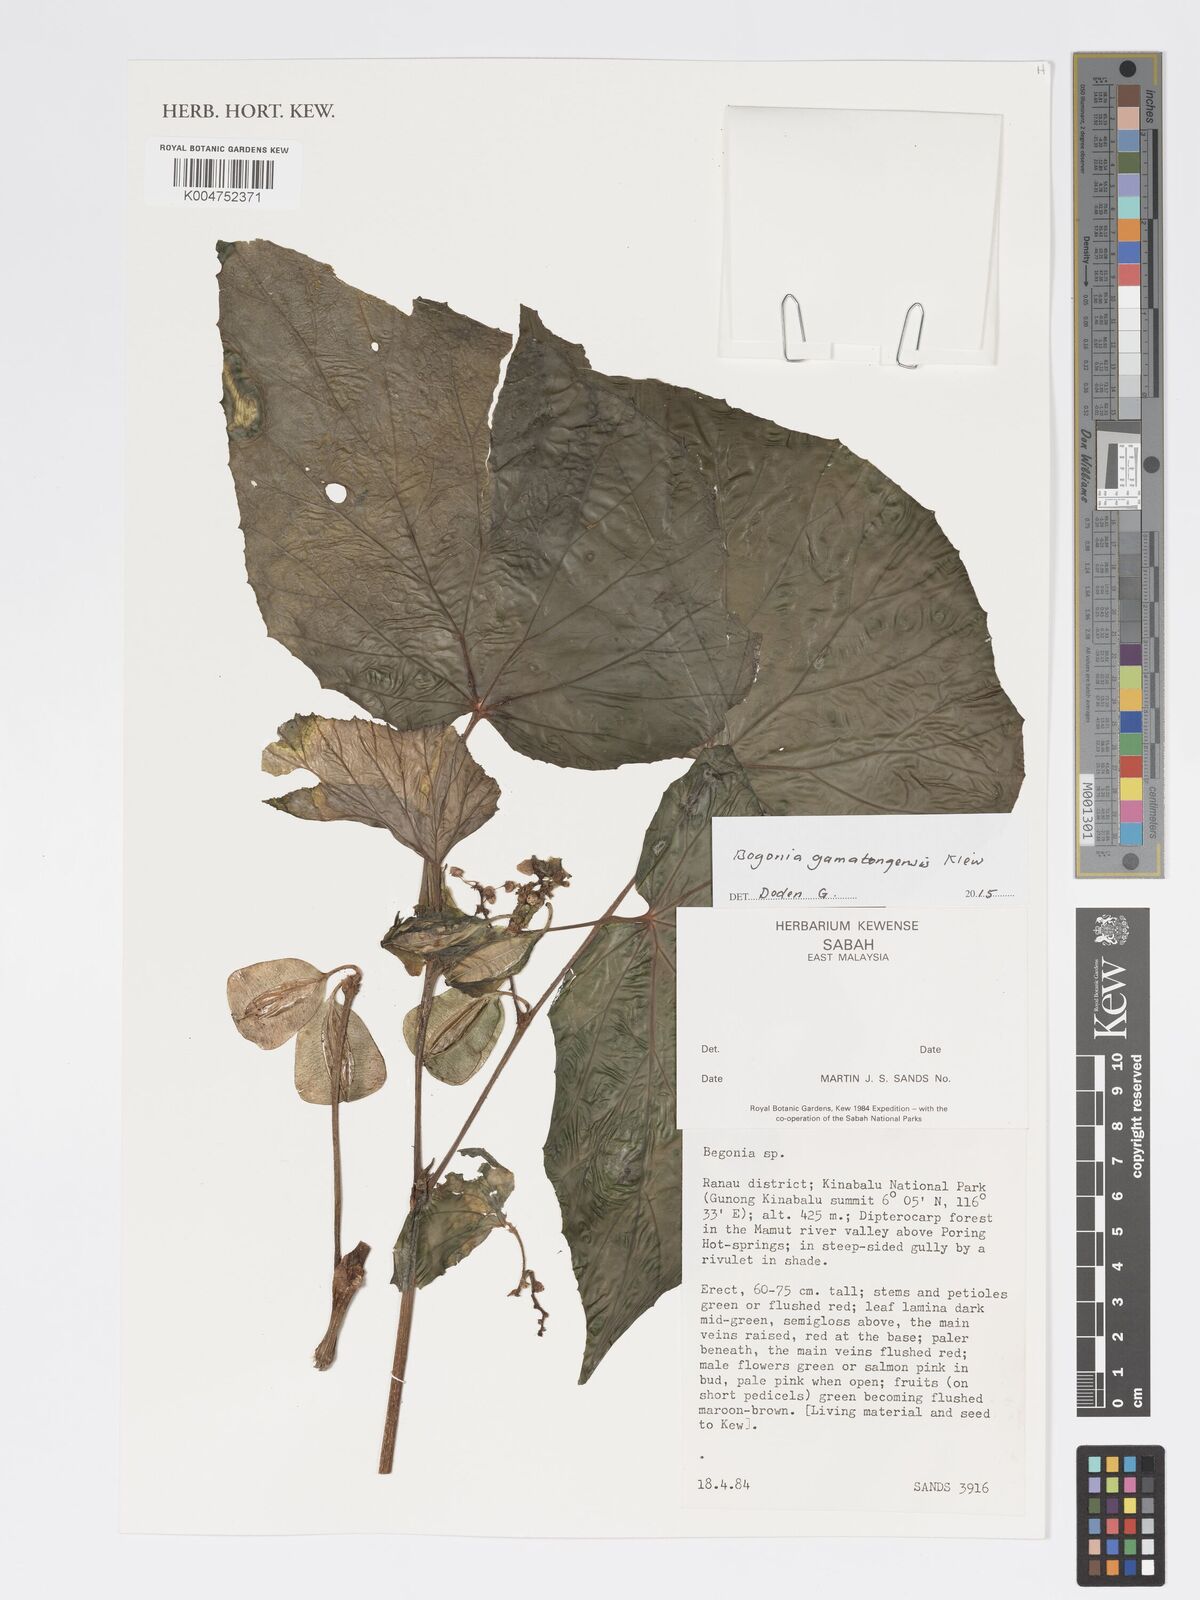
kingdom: Plantae
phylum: Tracheophyta
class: Magnoliopsida
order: Cucurbitales
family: Begoniaceae
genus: Begonia
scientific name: Begonia gomantongensis
